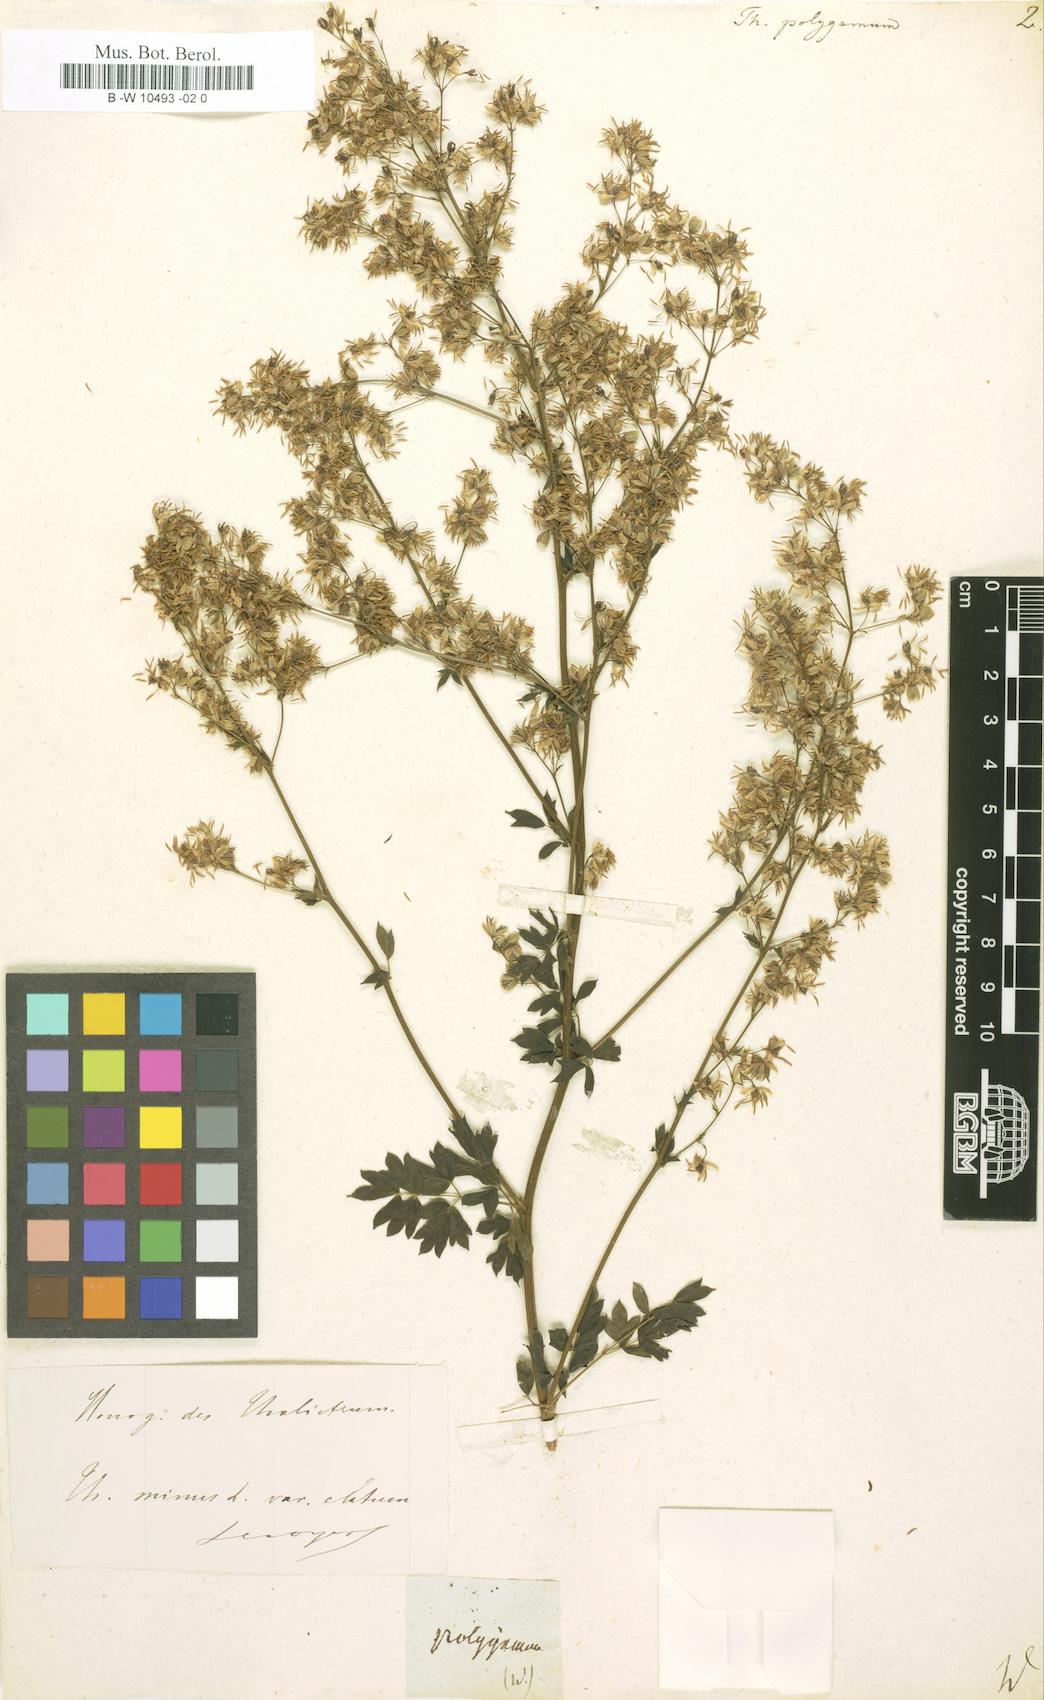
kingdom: Plantae
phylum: Tracheophyta
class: Magnoliopsida
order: Ranunculales
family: Ranunculaceae
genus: Thalictrum
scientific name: Thalictrum pubescens
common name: King-of-the-meadow
